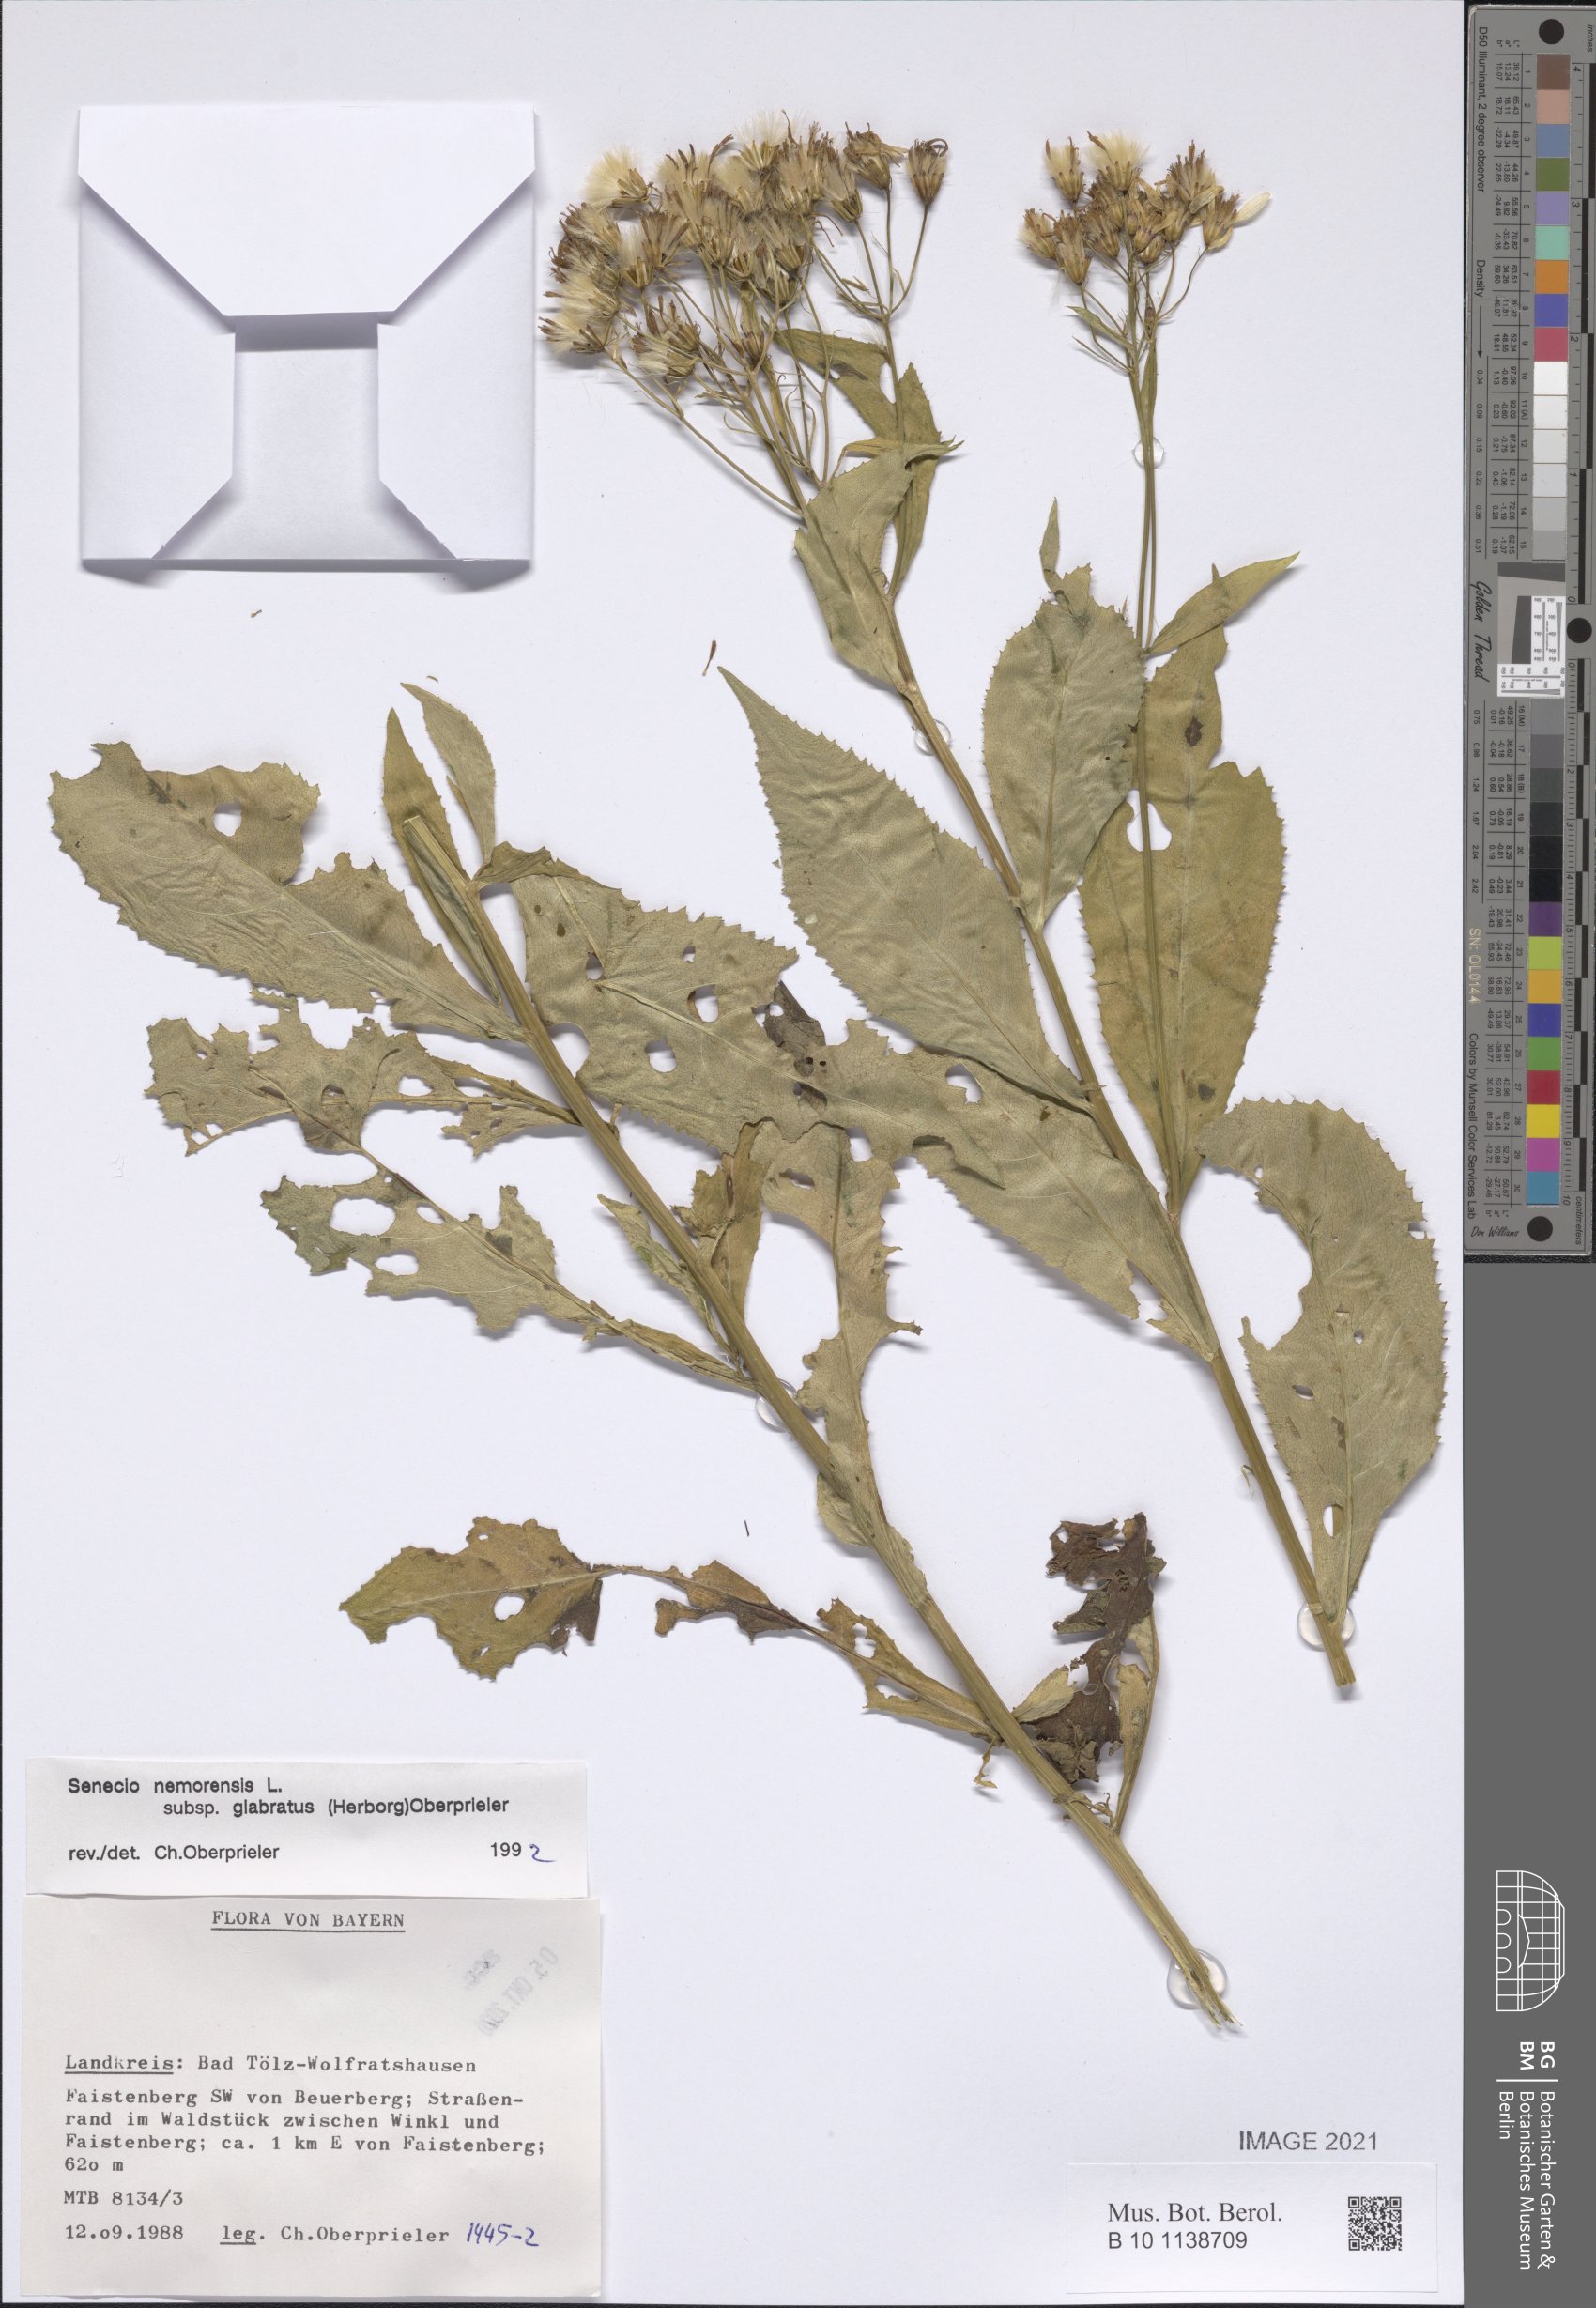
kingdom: Plantae
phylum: Tracheophyta
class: Magnoliopsida
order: Asterales
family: Asteraceae
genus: Senecio
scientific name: Senecio germanicus
